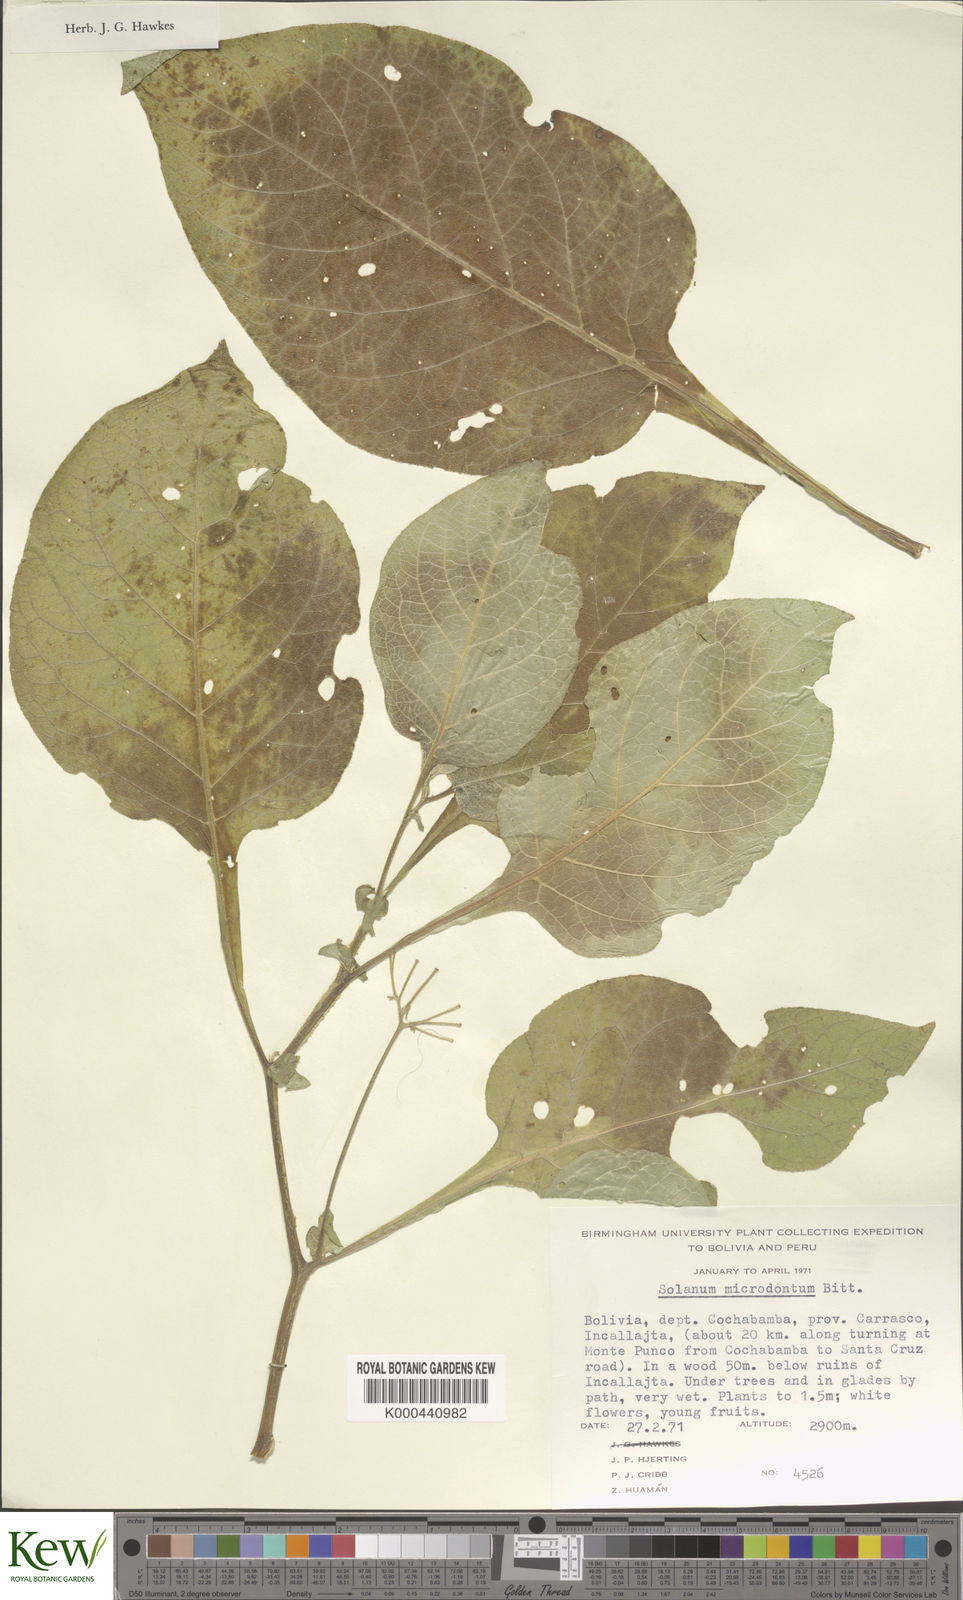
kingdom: Plantae
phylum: Tracheophyta
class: Magnoliopsida
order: Solanales
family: Solanaceae
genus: Solanum
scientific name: Solanum microdontum
